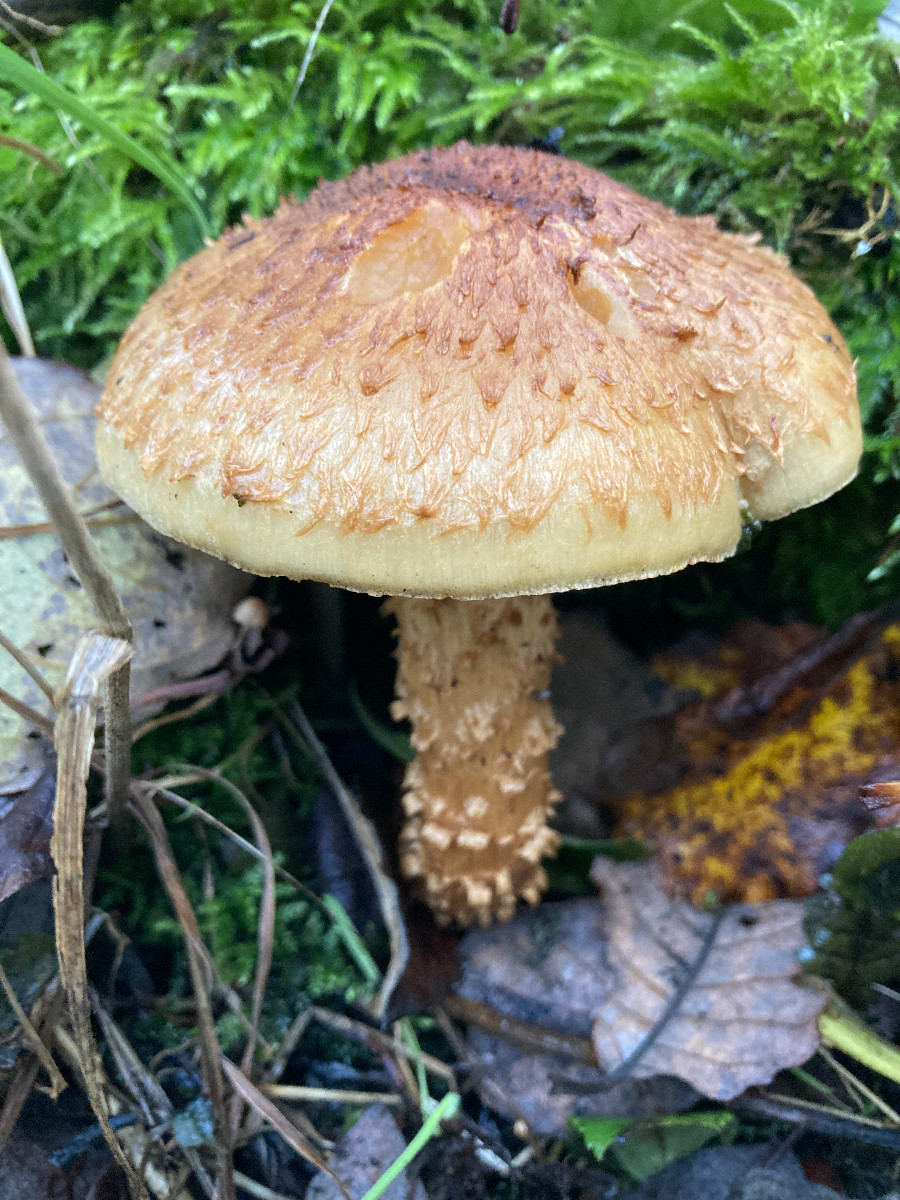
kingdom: Fungi
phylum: Basidiomycota
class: Agaricomycetes
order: Agaricales
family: Strophariaceae
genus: Pholiota
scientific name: Pholiota squarrosa
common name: krumskællet skælhat
